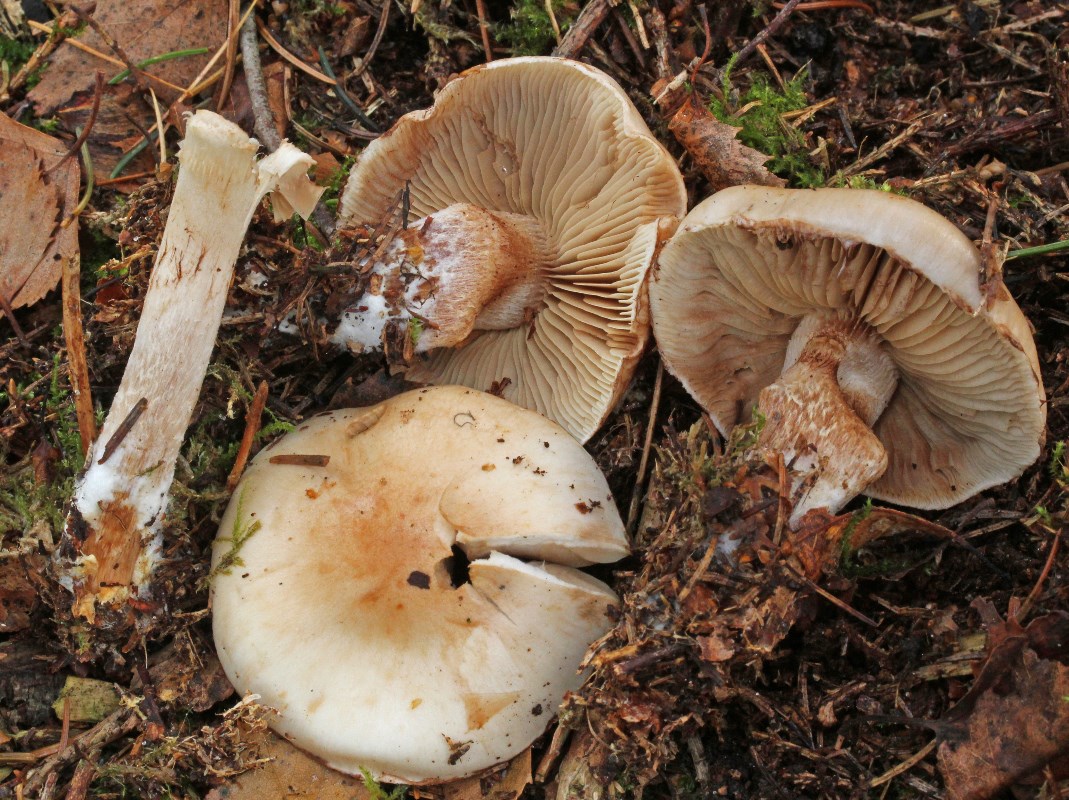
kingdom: Fungi
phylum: Basidiomycota
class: Agaricomycetes
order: Agaricales
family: Strophariaceae
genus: Pholiota
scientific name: Pholiota lenta
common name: løv-skælhat
